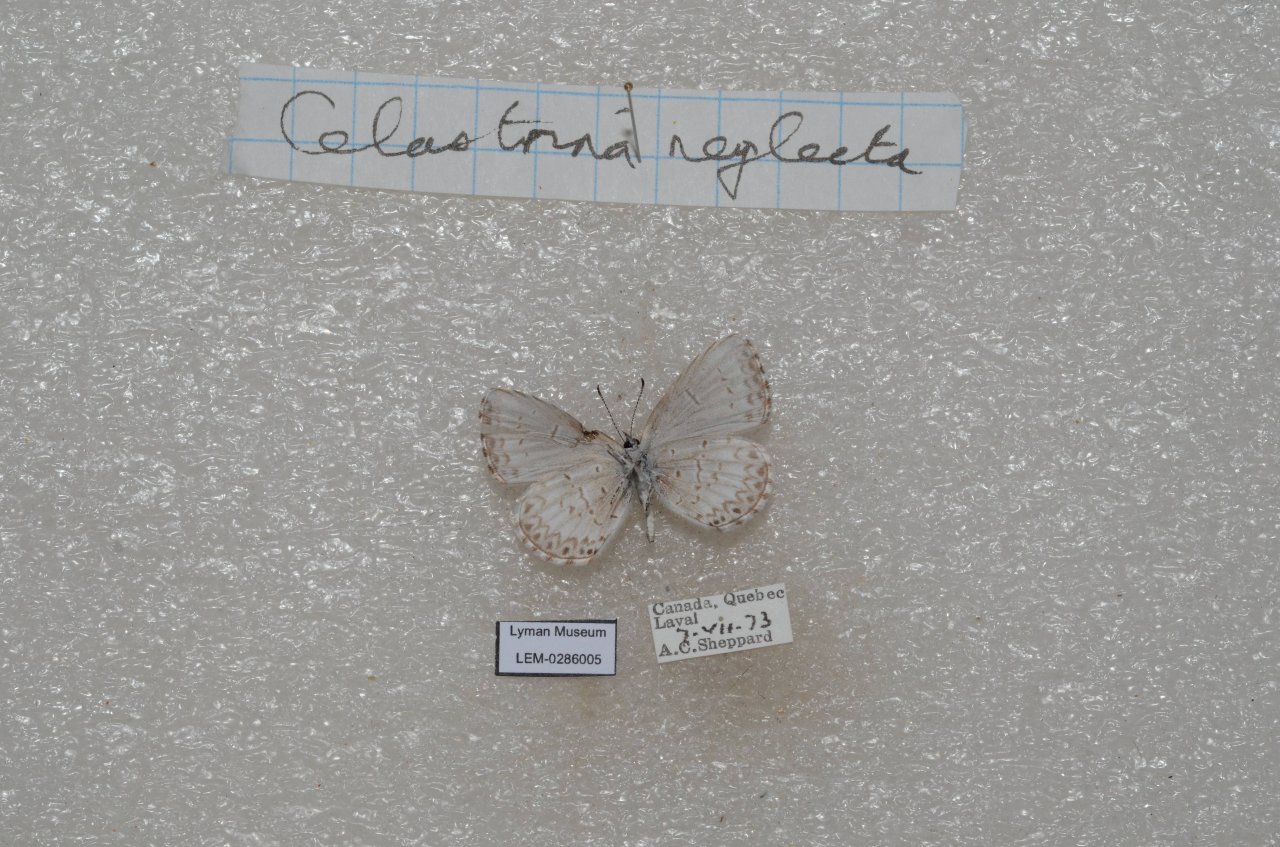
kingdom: Animalia
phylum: Arthropoda
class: Insecta
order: Lepidoptera
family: Lycaenidae
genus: Celastrina
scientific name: Celastrina lucia
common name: Northern Spring Azure
